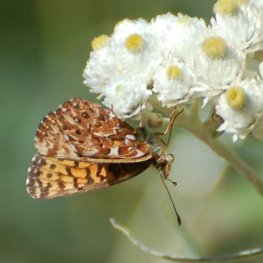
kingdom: Animalia
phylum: Arthropoda
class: Insecta
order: Lepidoptera
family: Nymphalidae
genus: Boloria
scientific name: Boloria chariclea
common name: Arctic Fritillary
